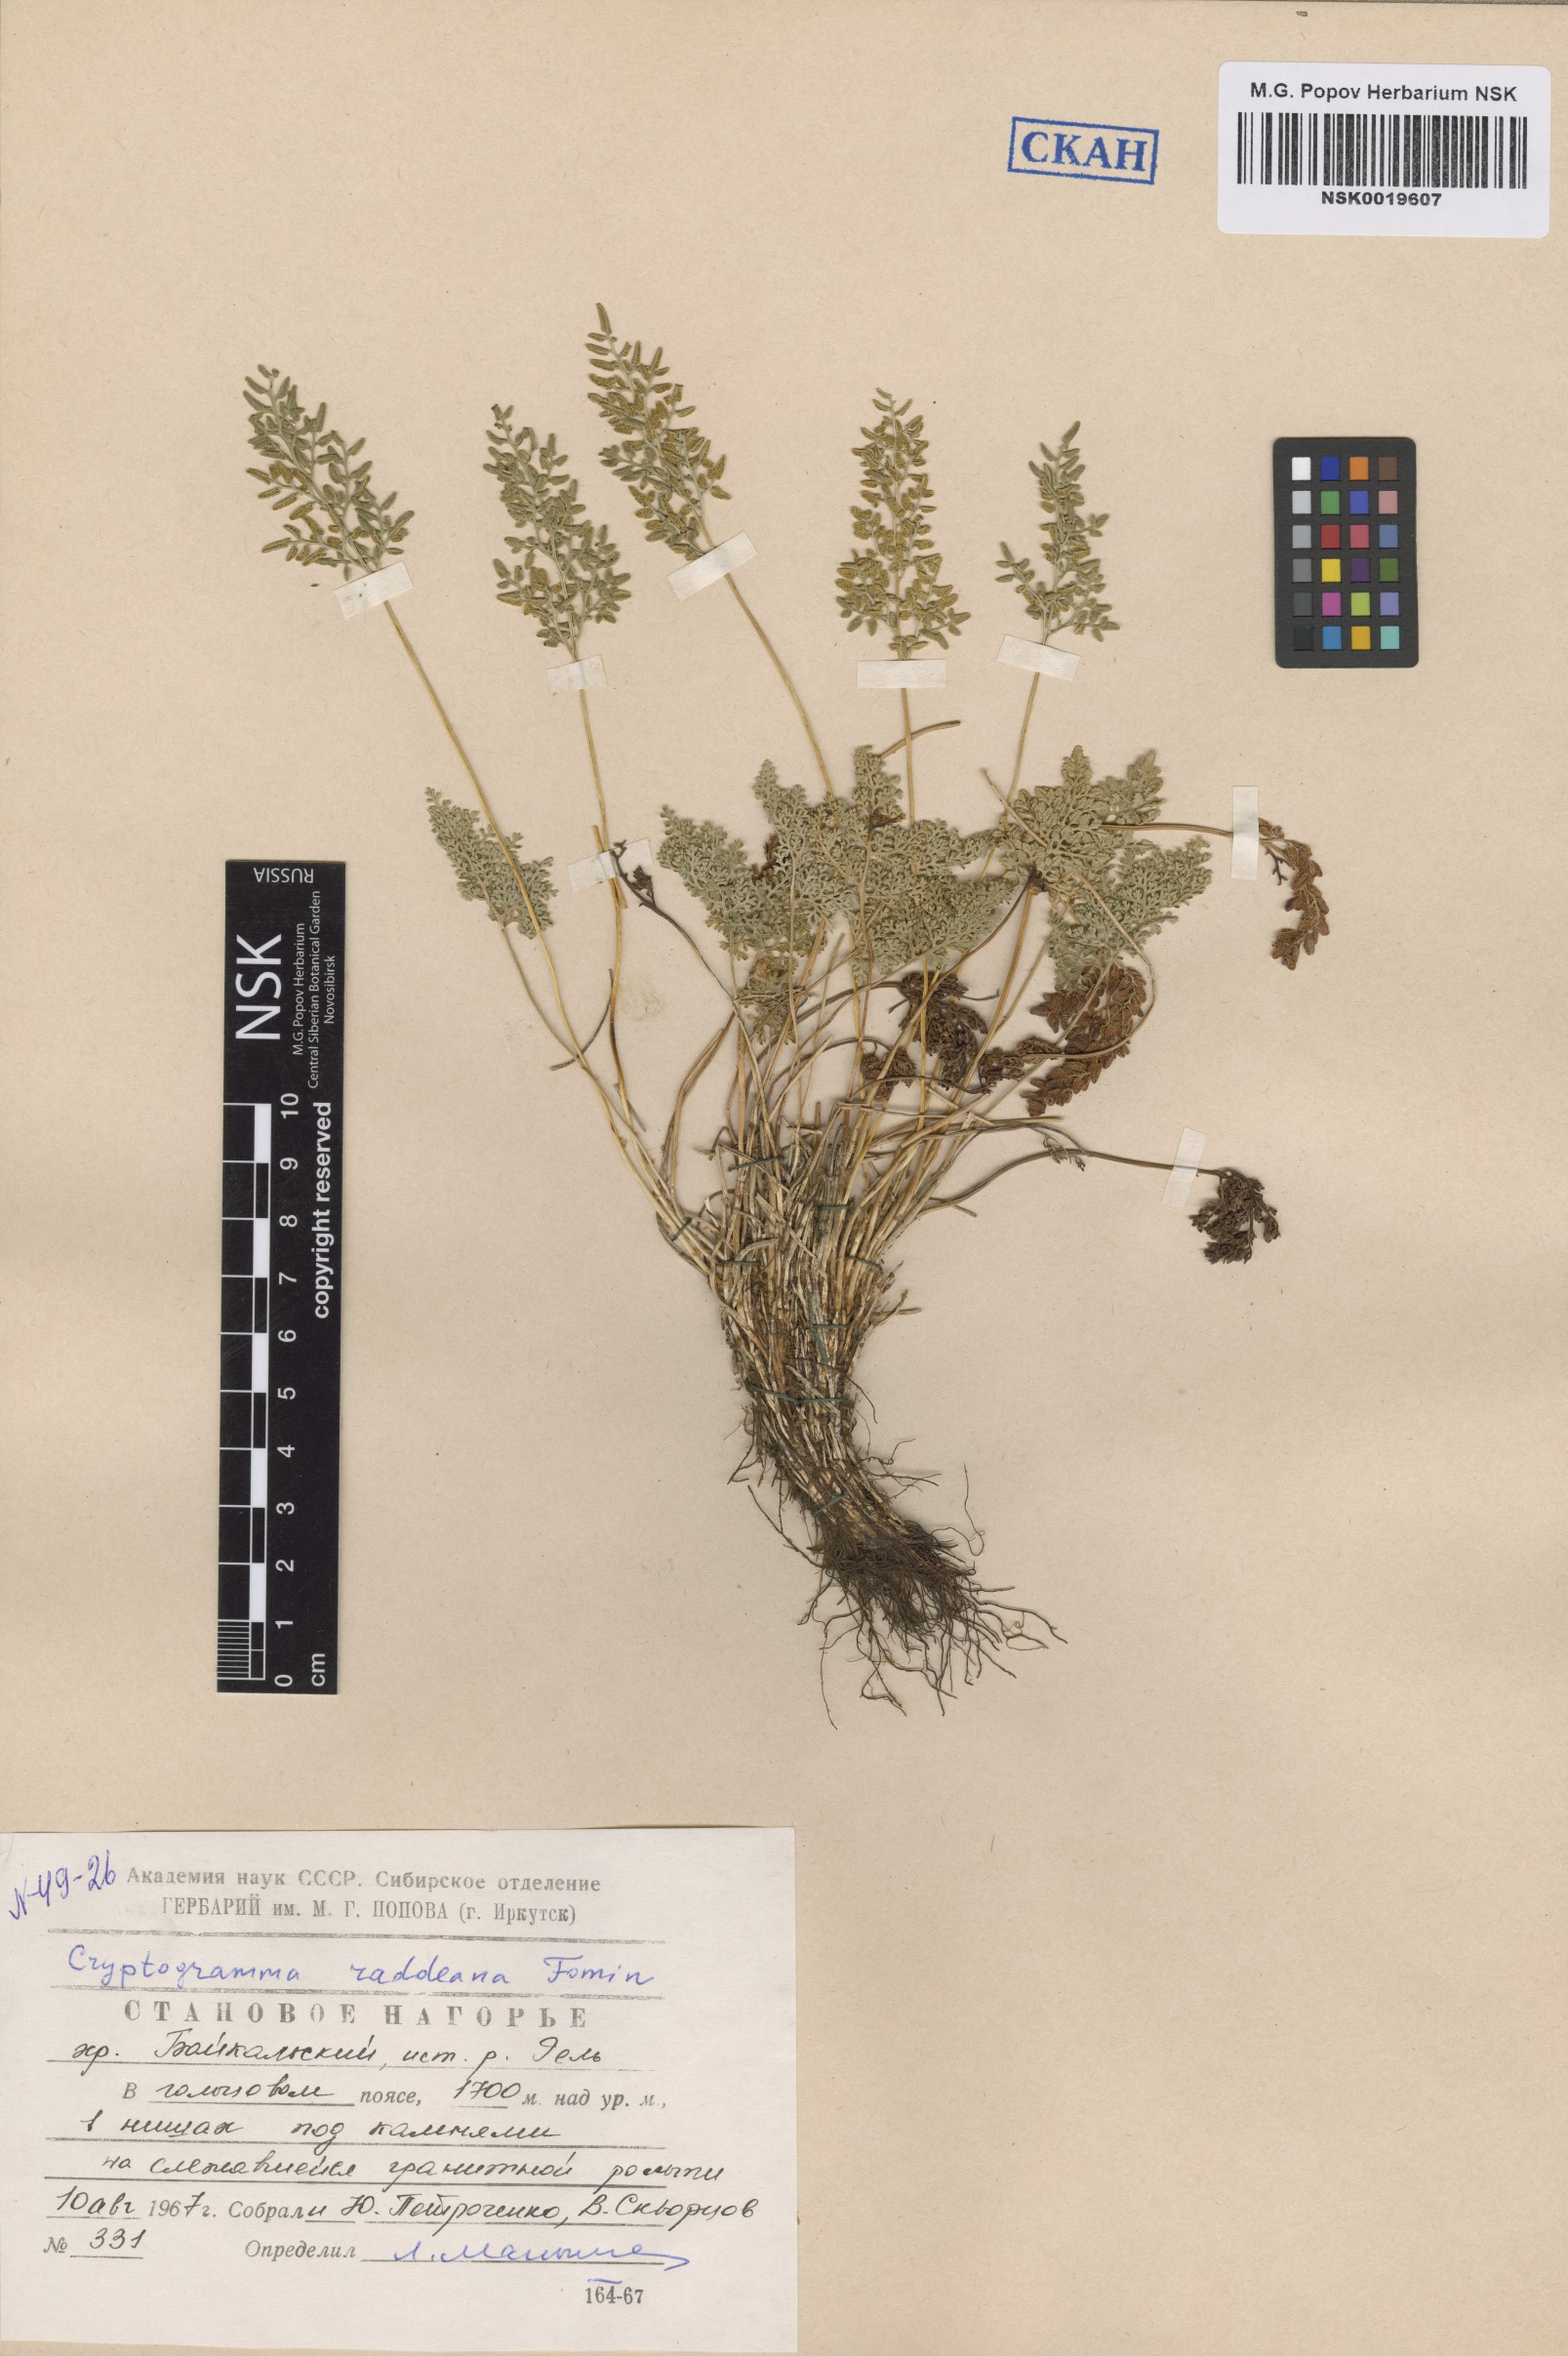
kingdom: Plantae
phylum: Tracheophyta
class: Polypodiopsida
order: Polypodiales
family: Pteridaceae
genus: Cryptogramma
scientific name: Cryptogramma brunoniana
